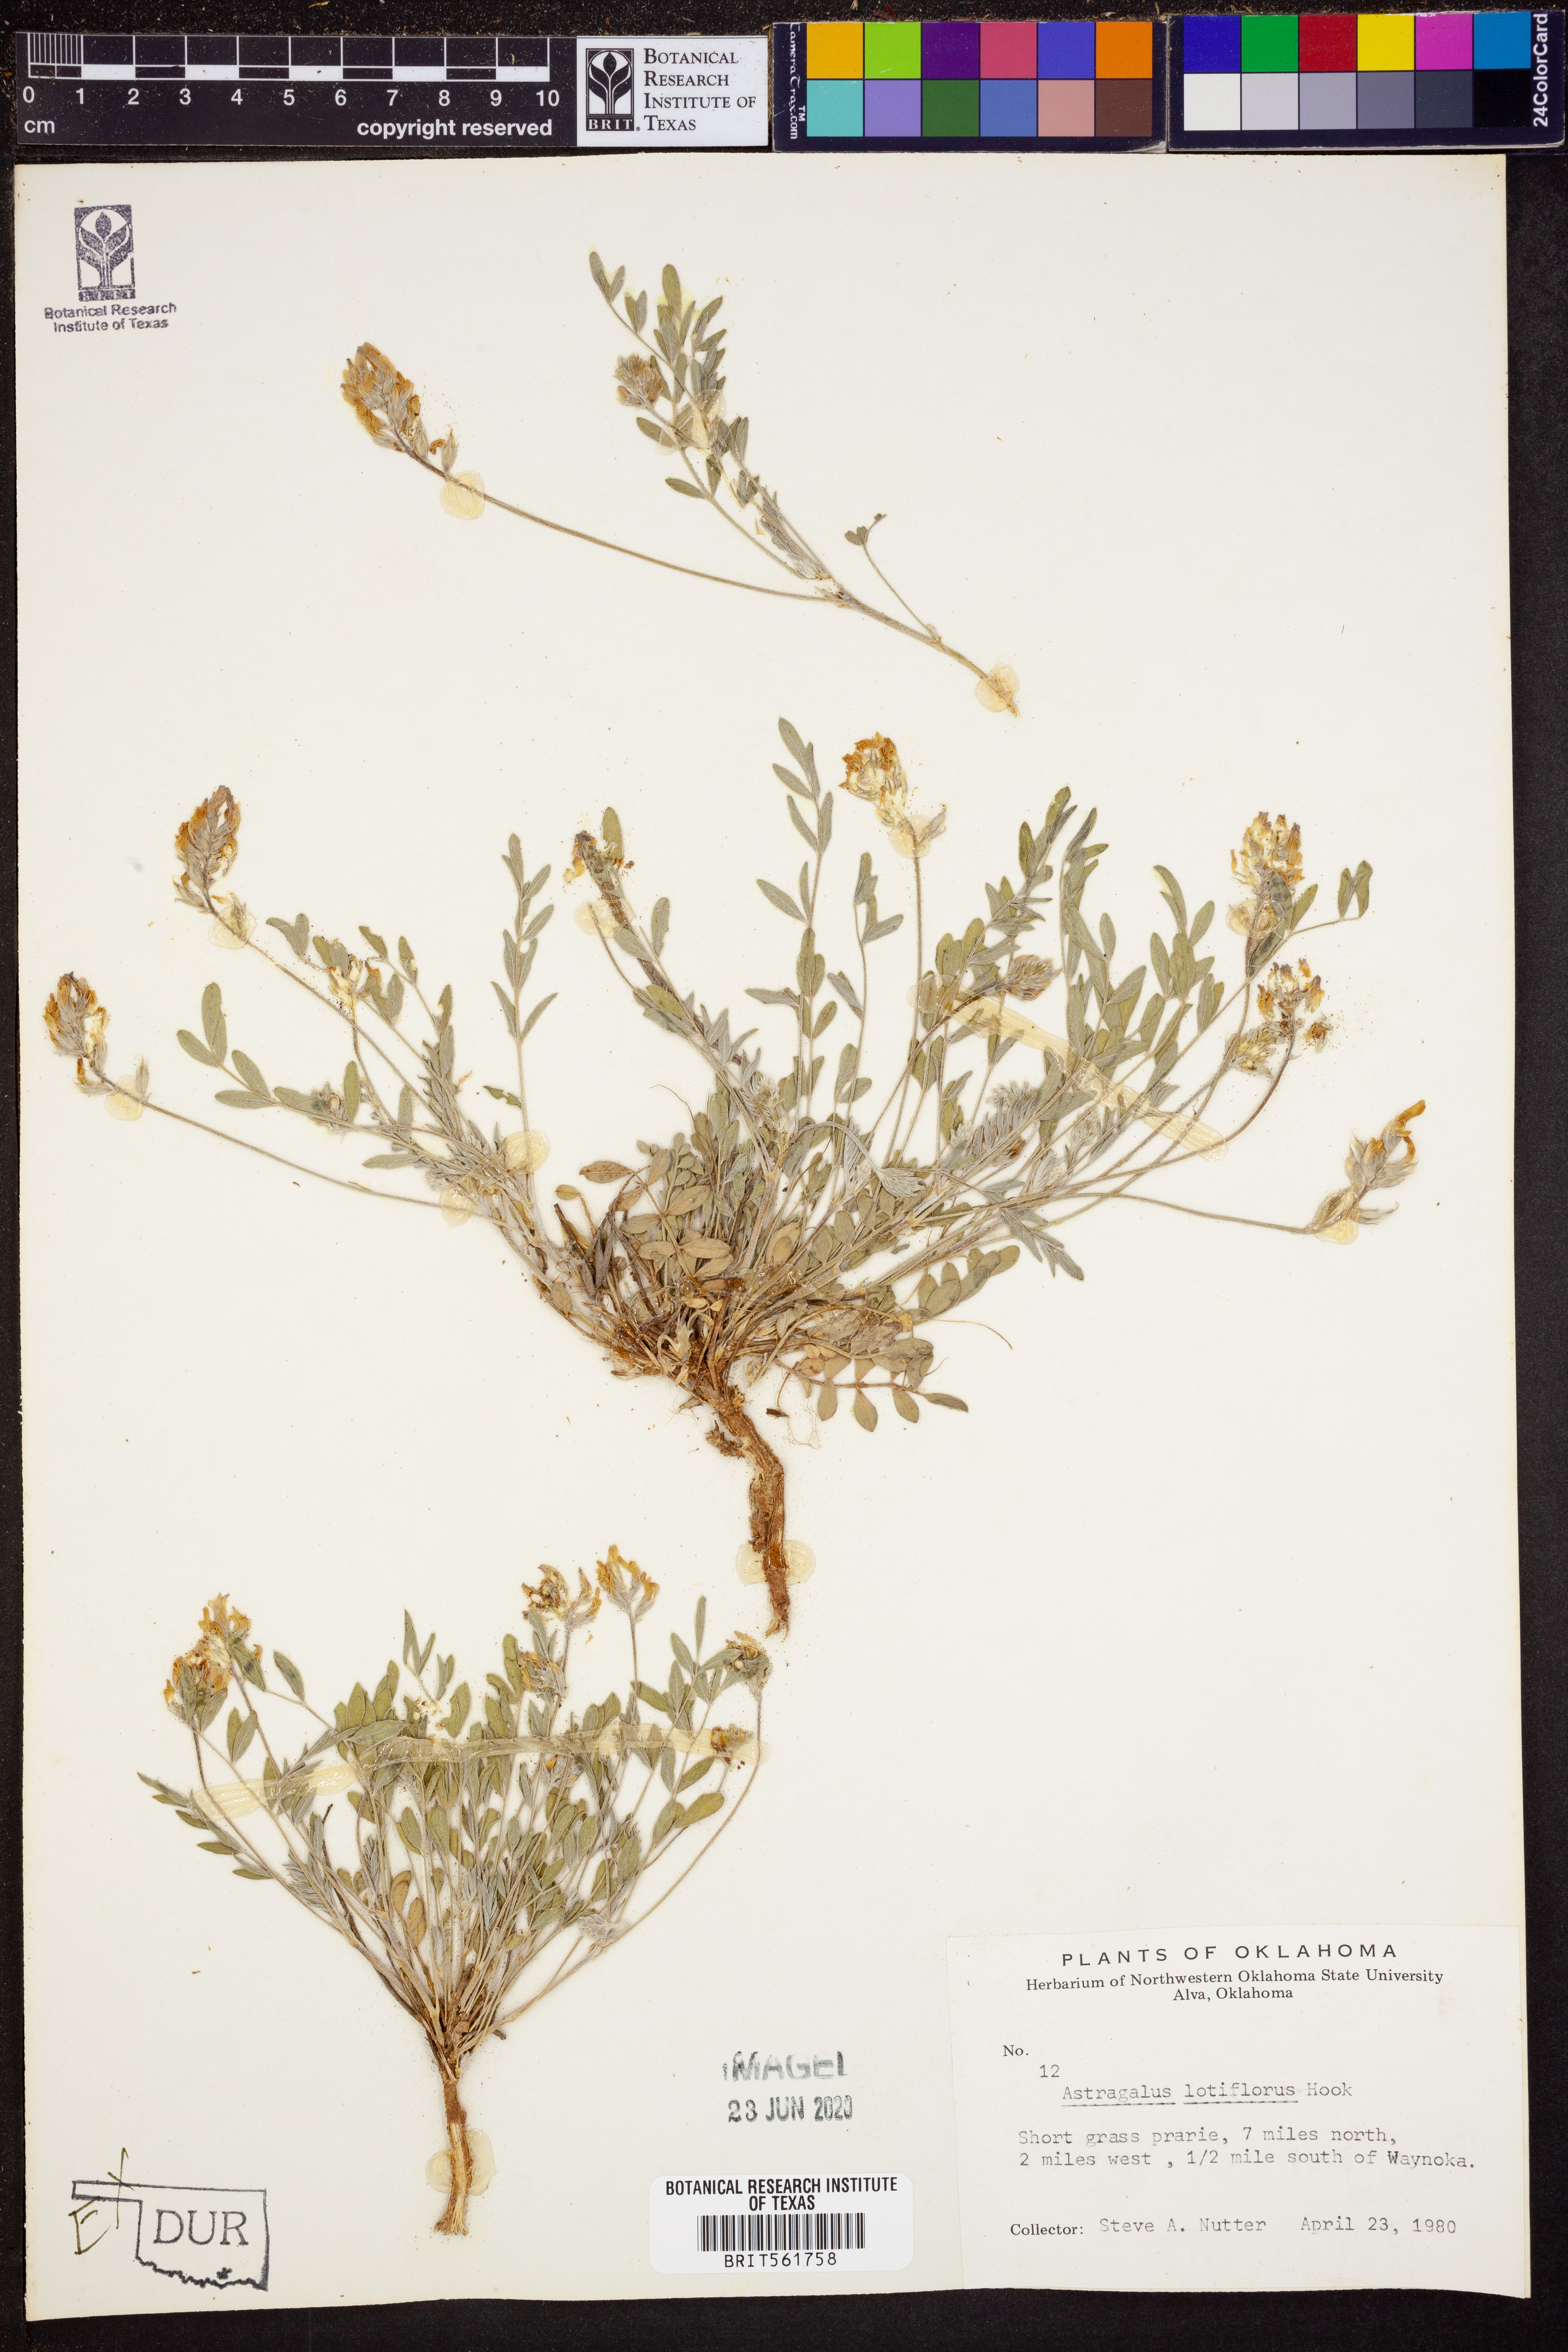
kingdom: Plantae
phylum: Tracheophyta
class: Magnoliopsida
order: Fabales
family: Fabaceae
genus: Astragalus
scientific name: Astragalus lotiflorus
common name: Lotus milk-vetch
